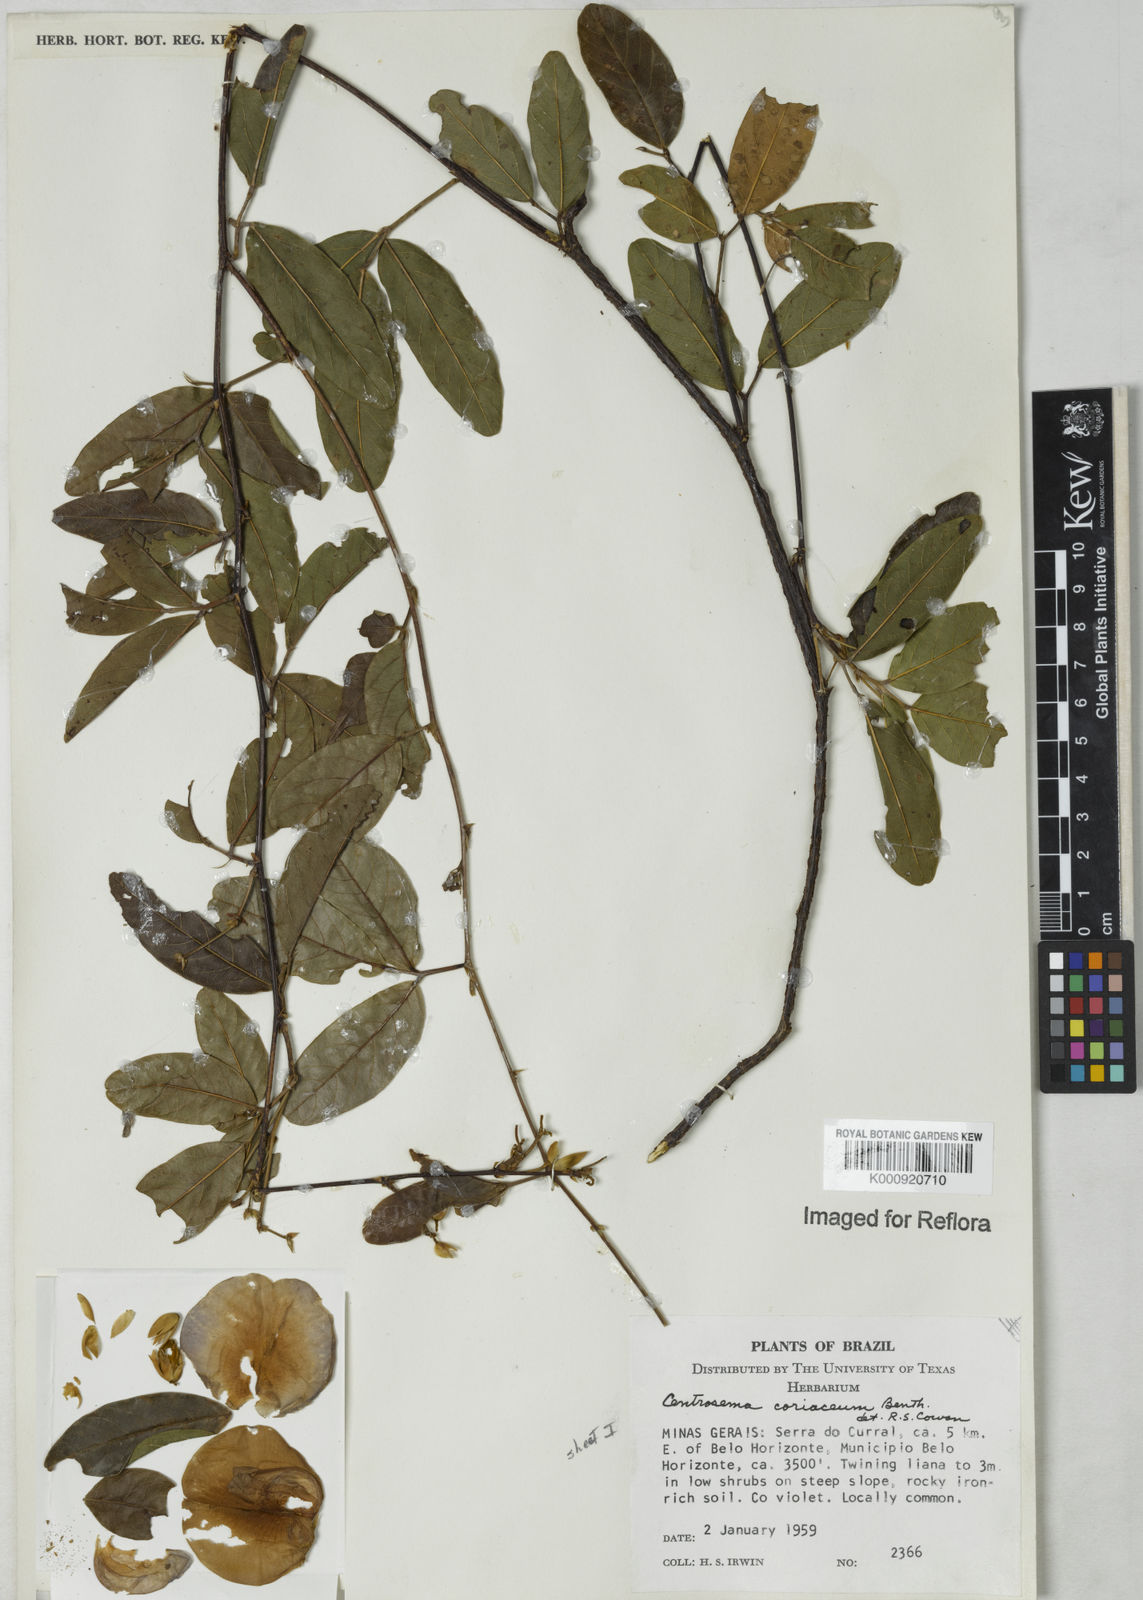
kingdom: Plantae
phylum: Tracheophyta
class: Magnoliopsida
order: Fabales
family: Fabaceae
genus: Centrosema
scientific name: Centrosema coriaceum
